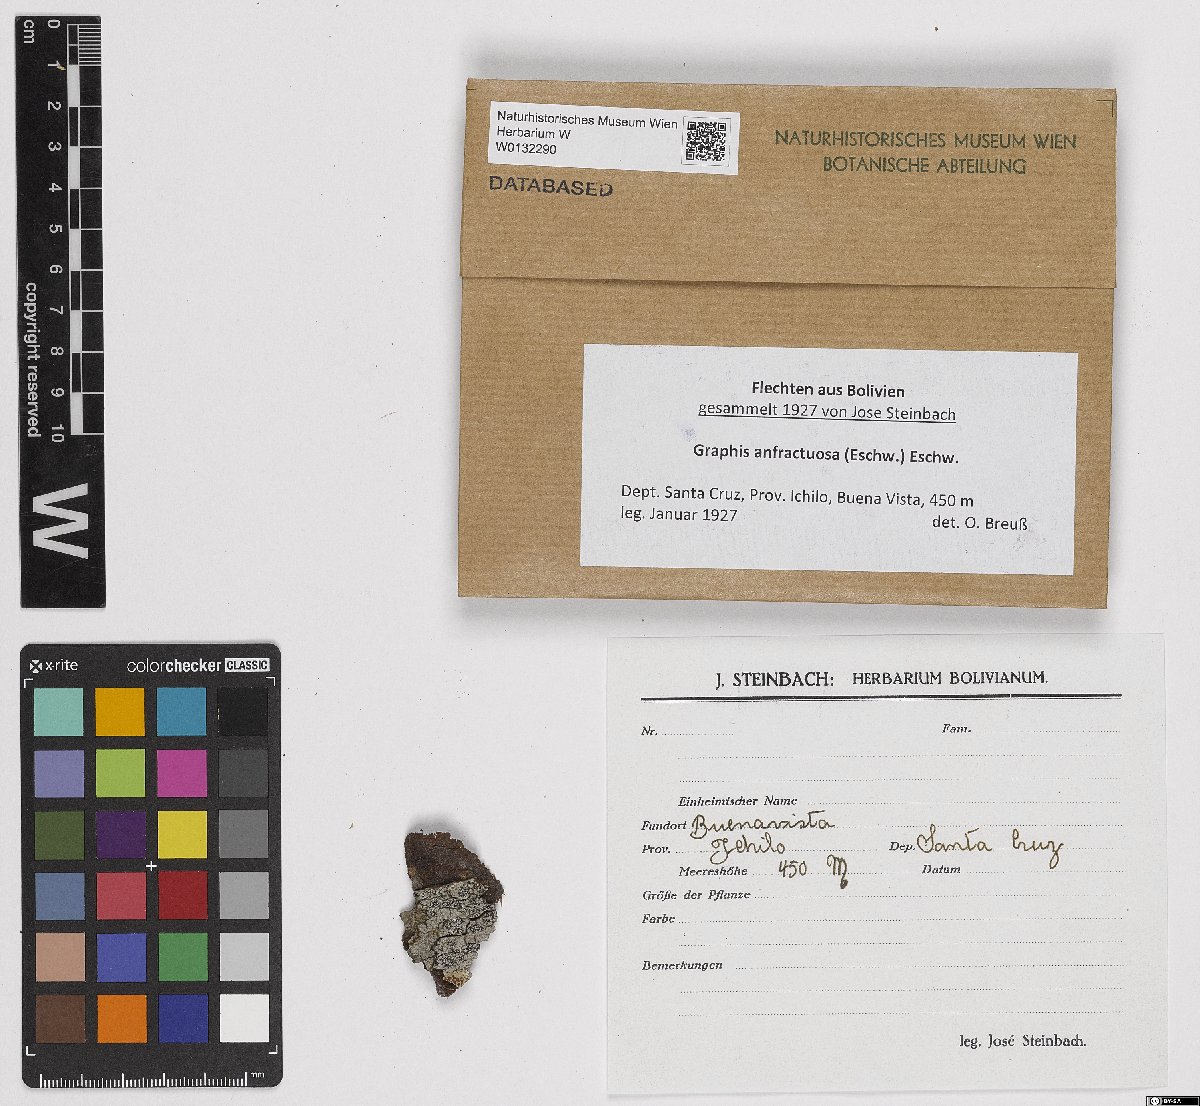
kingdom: Fungi
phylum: Ascomycota
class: Lecanoromycetes
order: Ostropales
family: Graphidaceae
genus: Graphis
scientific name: Graphis anfractuosa
